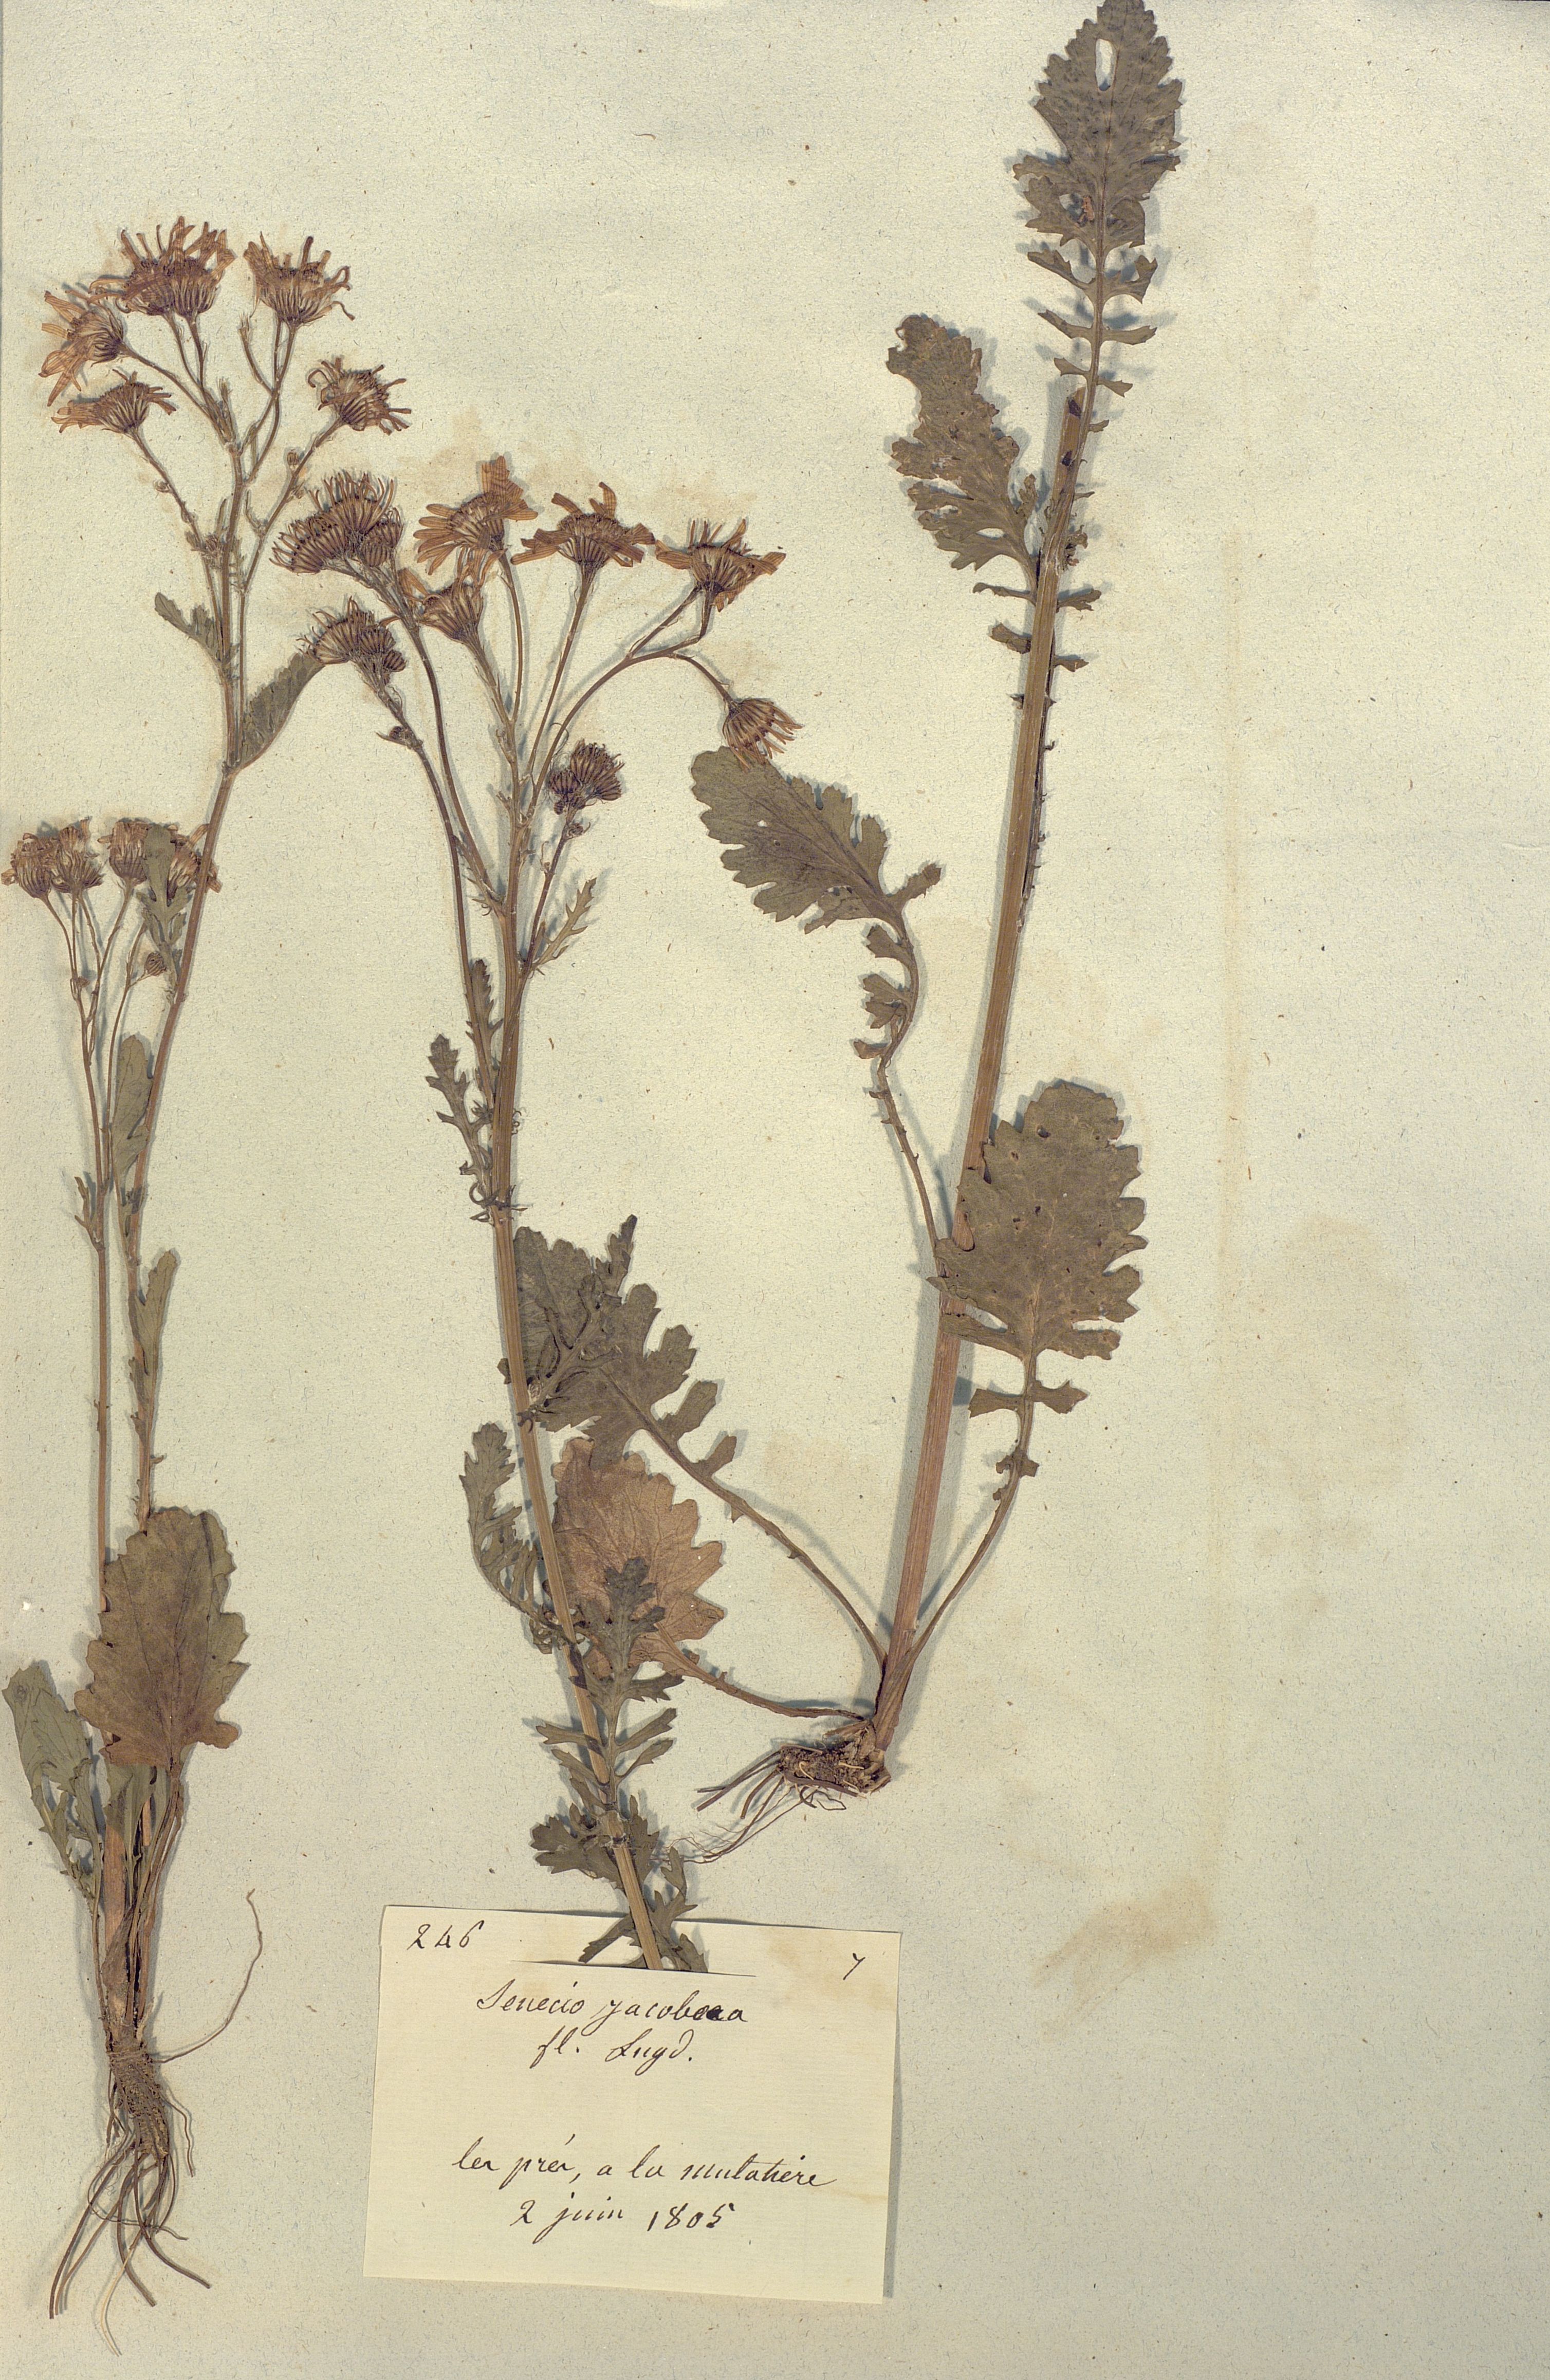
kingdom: Plantae
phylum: Tracheophyta
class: Magnoliopsida
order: Asterales
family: Asteraceae
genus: Senecio
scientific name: Senecio jacobaea
